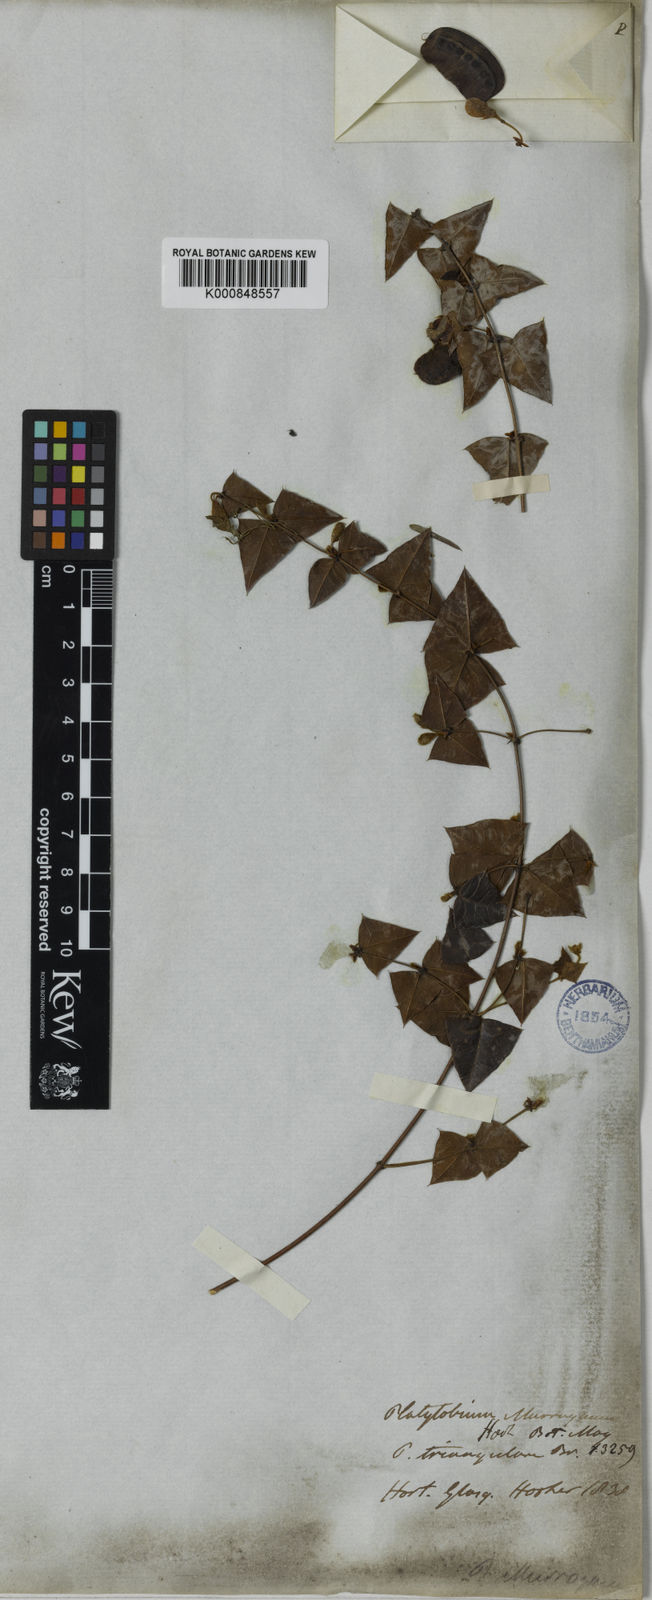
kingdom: Plantae
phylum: Tracheophyta
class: Magnoliopsida
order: Fabales
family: Fabaceae
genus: Platylobium
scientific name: Platylobium triangulare
